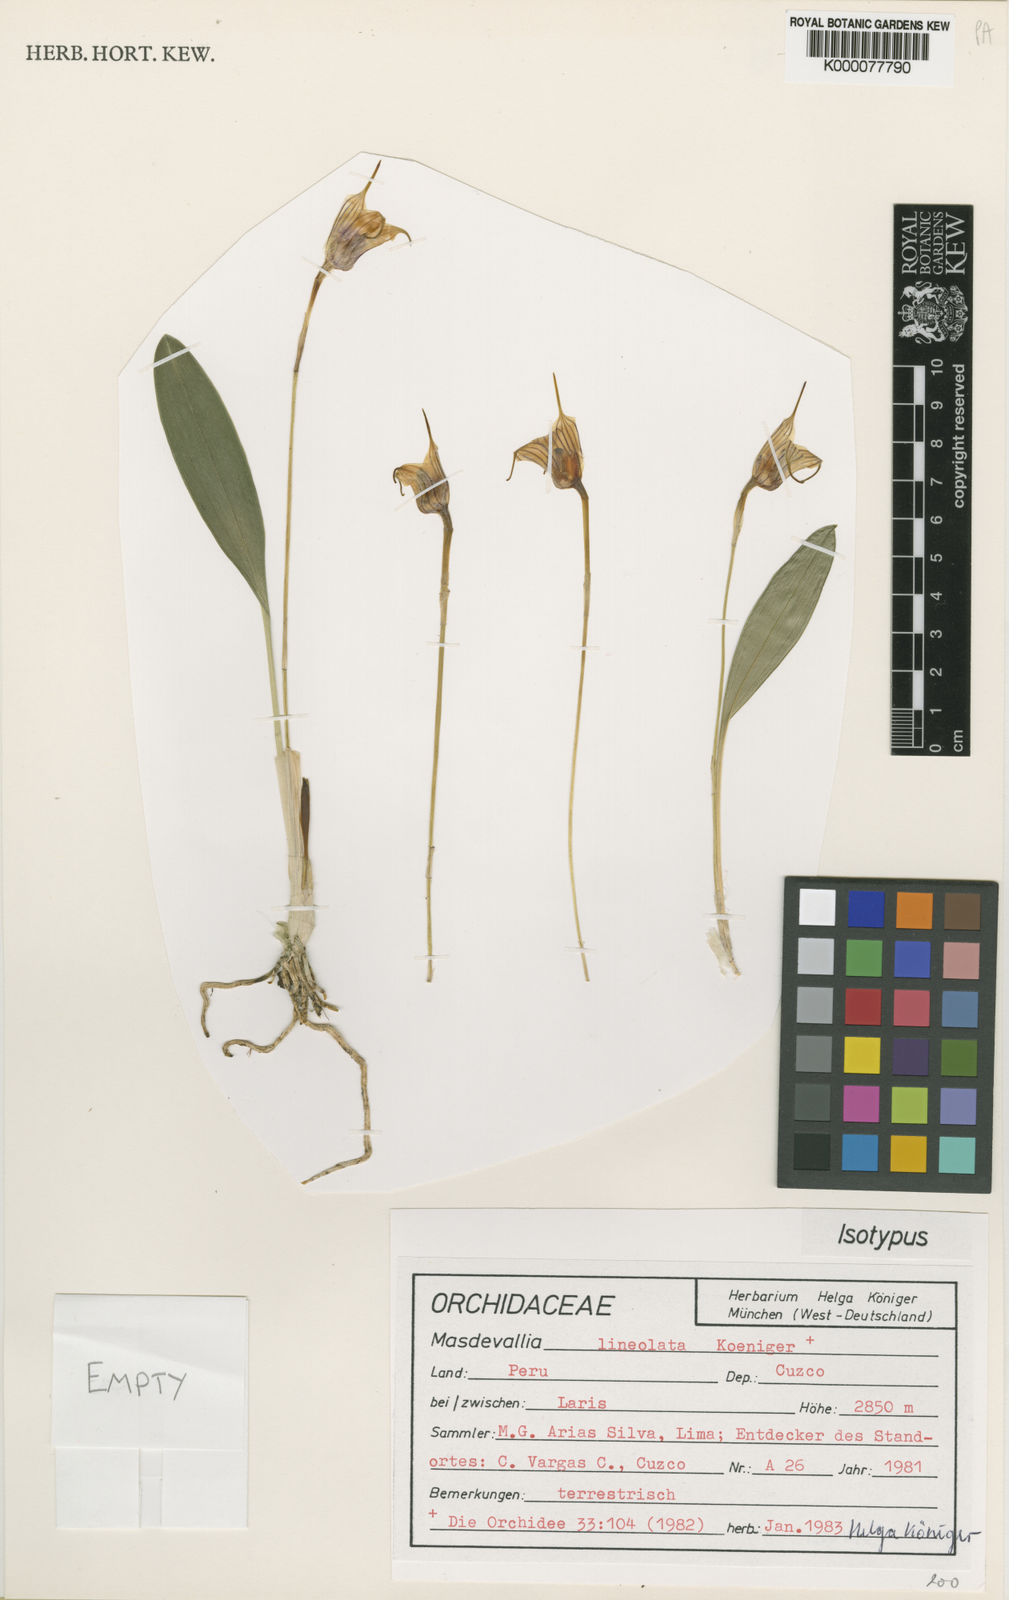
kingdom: Plantae
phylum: Tracheophyta
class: Liliopsida
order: Asparagales
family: Orchidaceae
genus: Masdevallia
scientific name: Masdevallia
